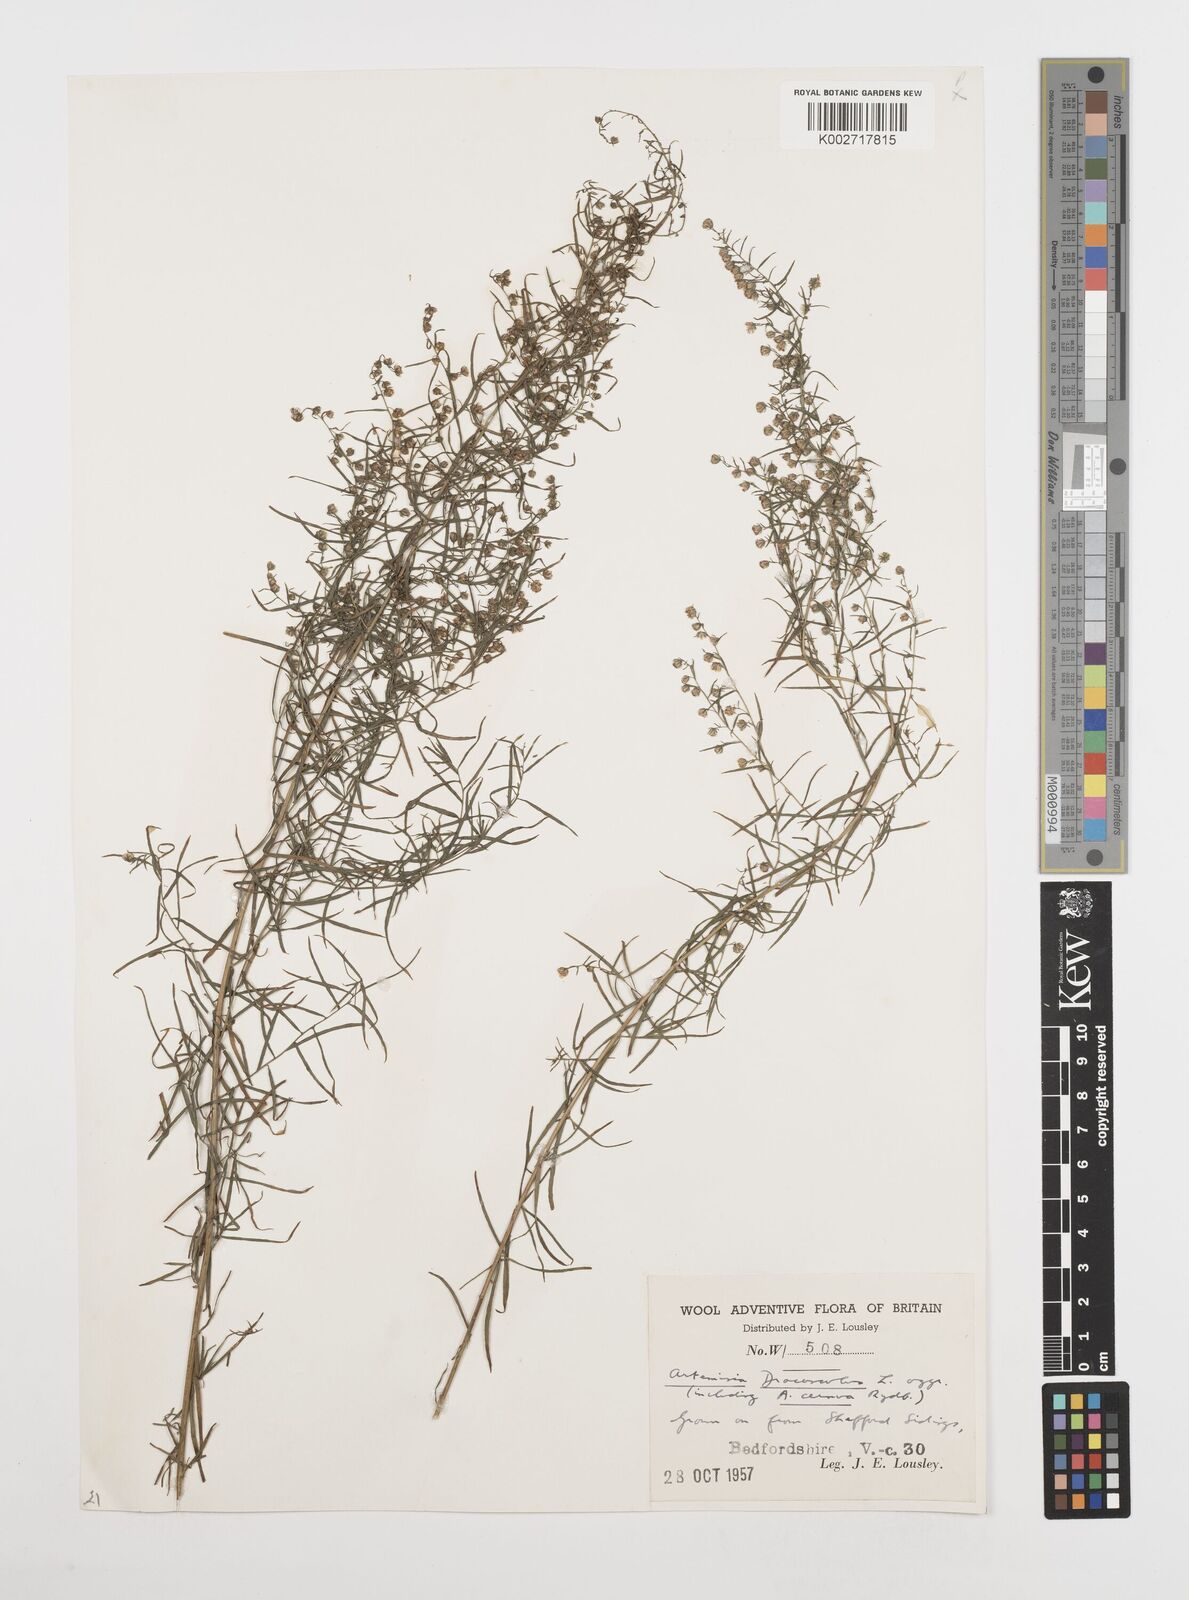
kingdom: Plantae
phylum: Tracheophyta
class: Magnoliopsida
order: Asterales
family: Asteraceae
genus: Artemisia
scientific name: Artemisia dracunculus
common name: Tarragon
